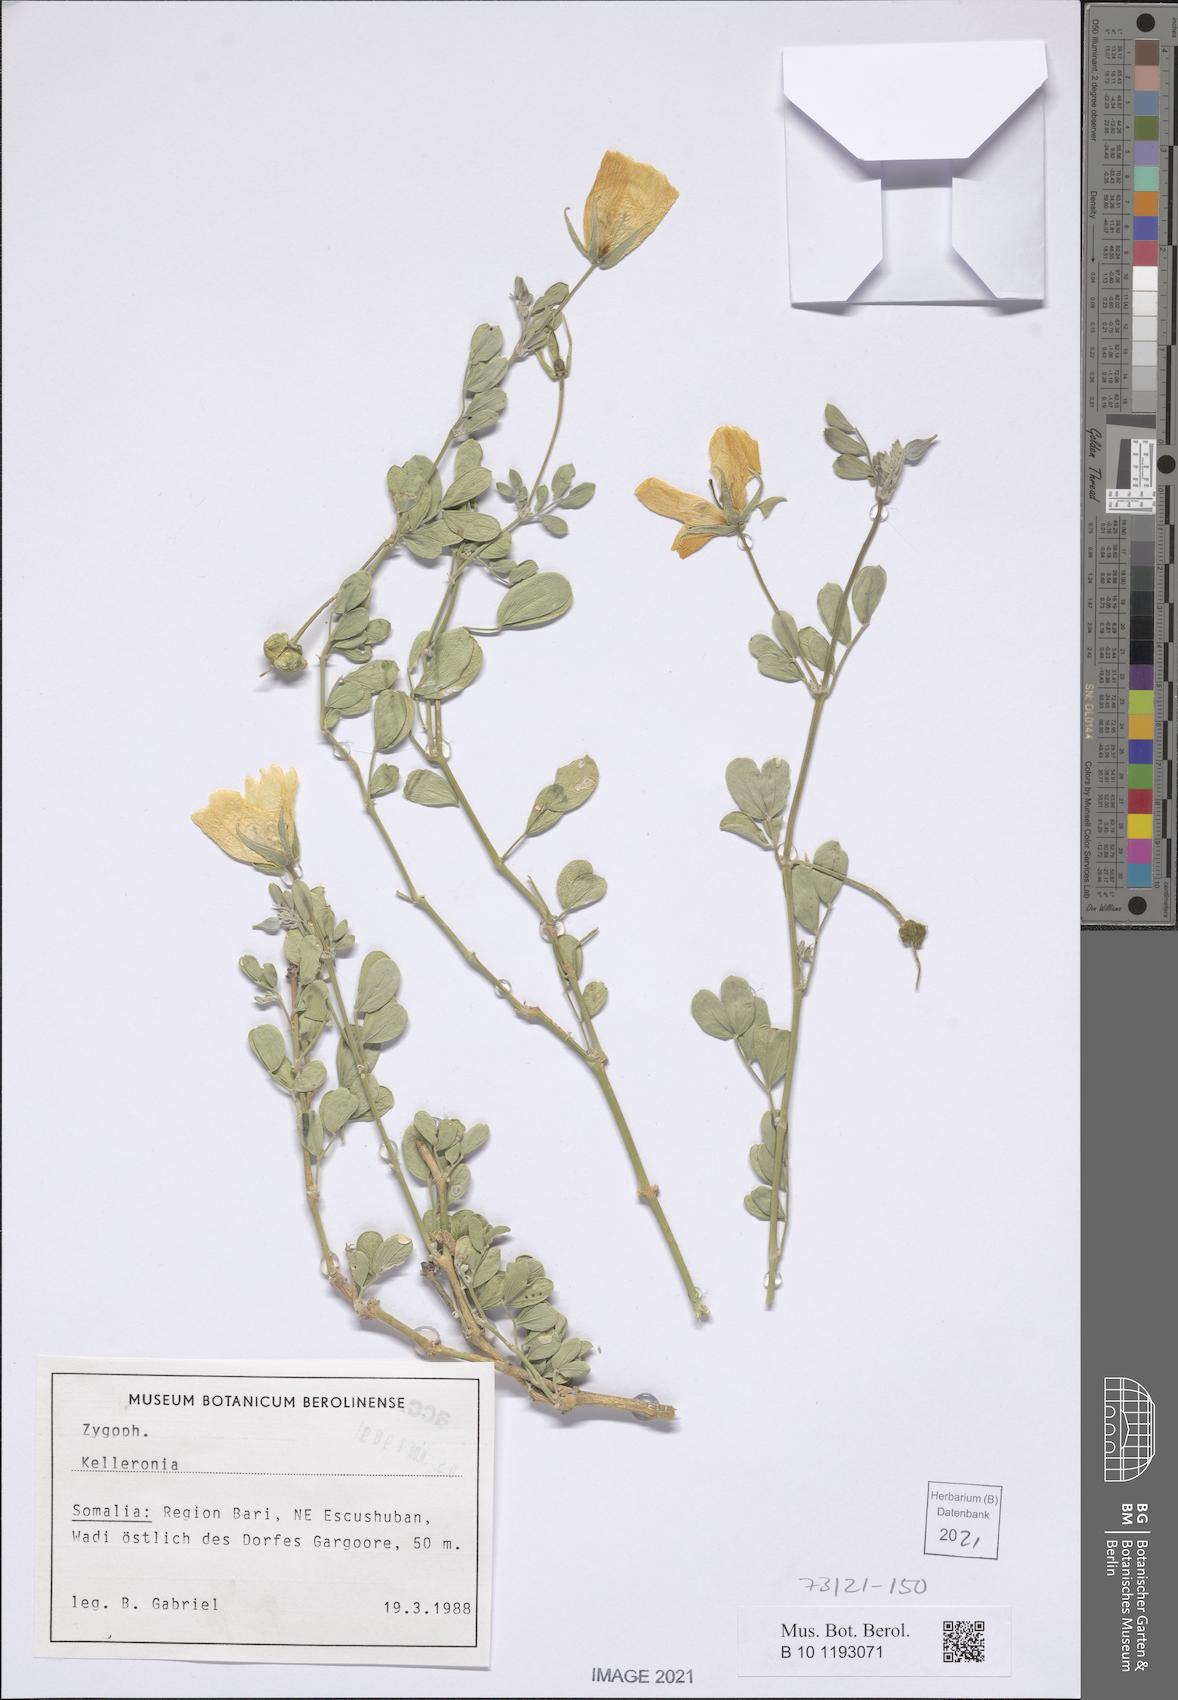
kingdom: Plantae
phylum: Tracheophyta
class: Magnoliopsida
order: Zygophyllales
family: Zygophyllaceae
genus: Kelleronia
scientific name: Kelleronia
